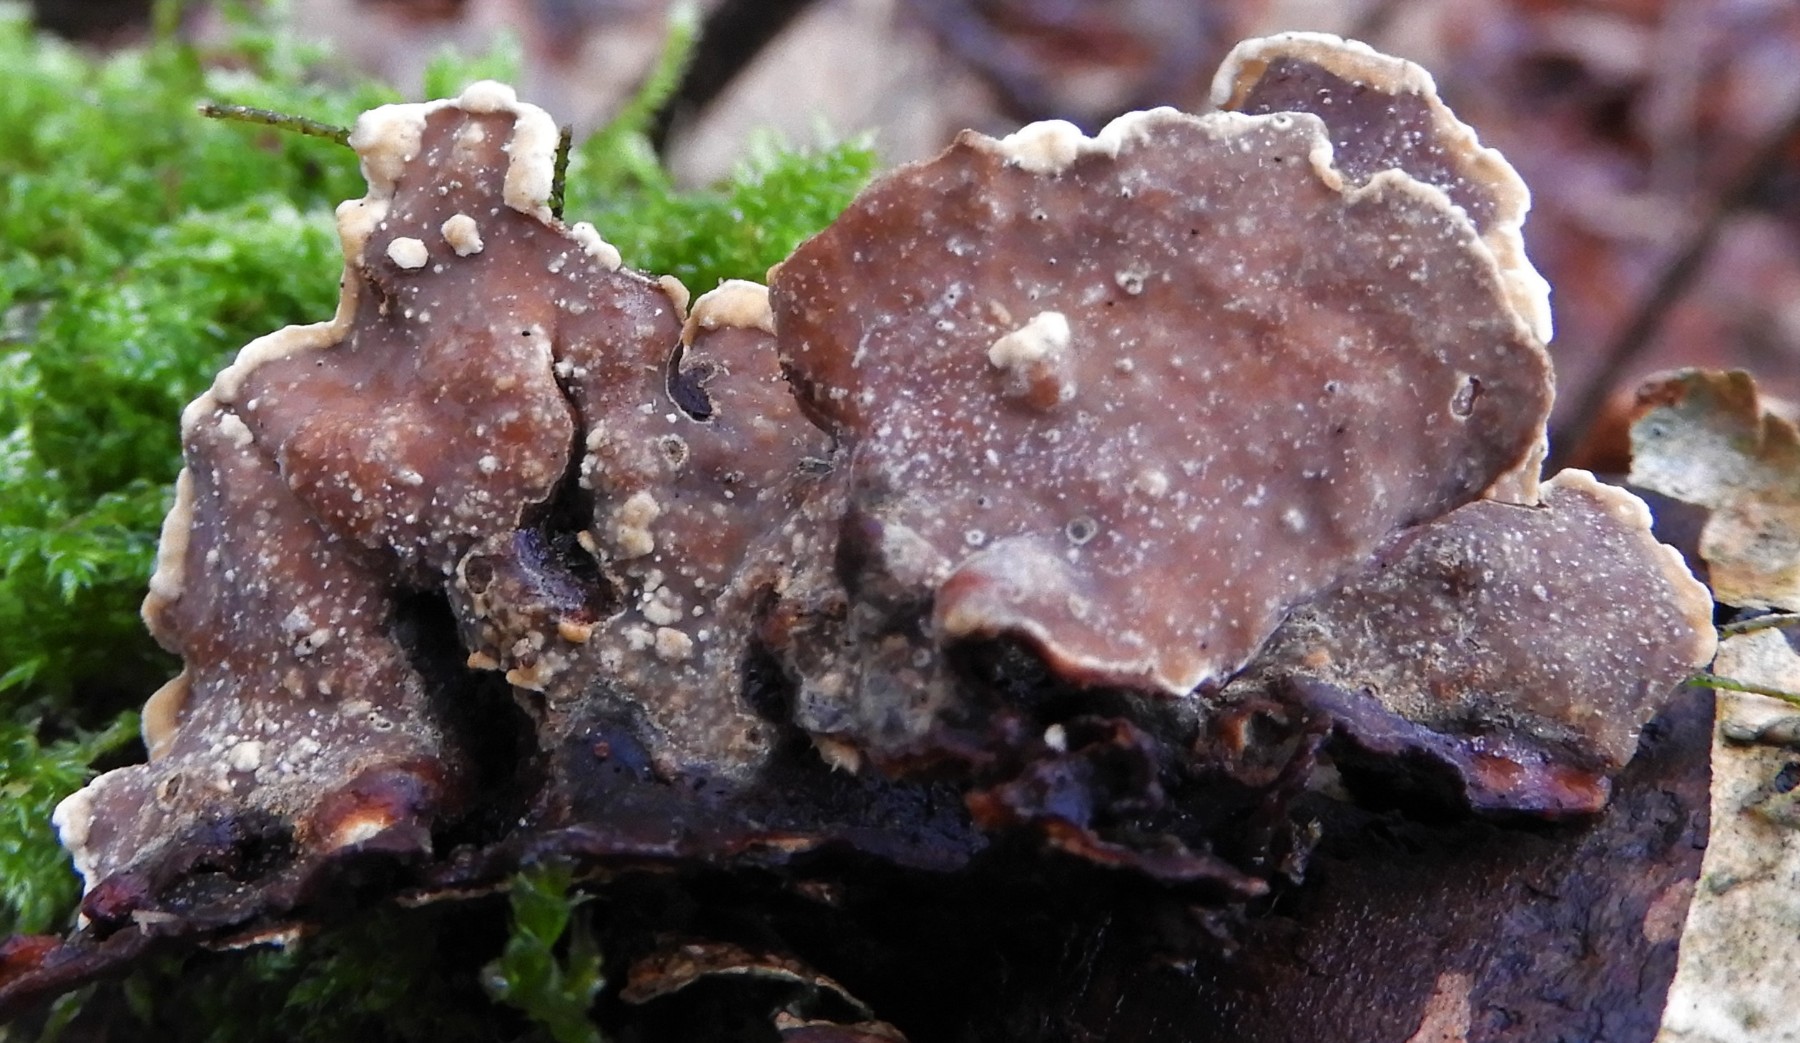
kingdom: Fungi
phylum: Basidiomycota
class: Agaricomycetes
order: Russulales
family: Stereaceae
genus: Stereum
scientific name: Stereum subtomentosum
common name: smuk lædersvamp
